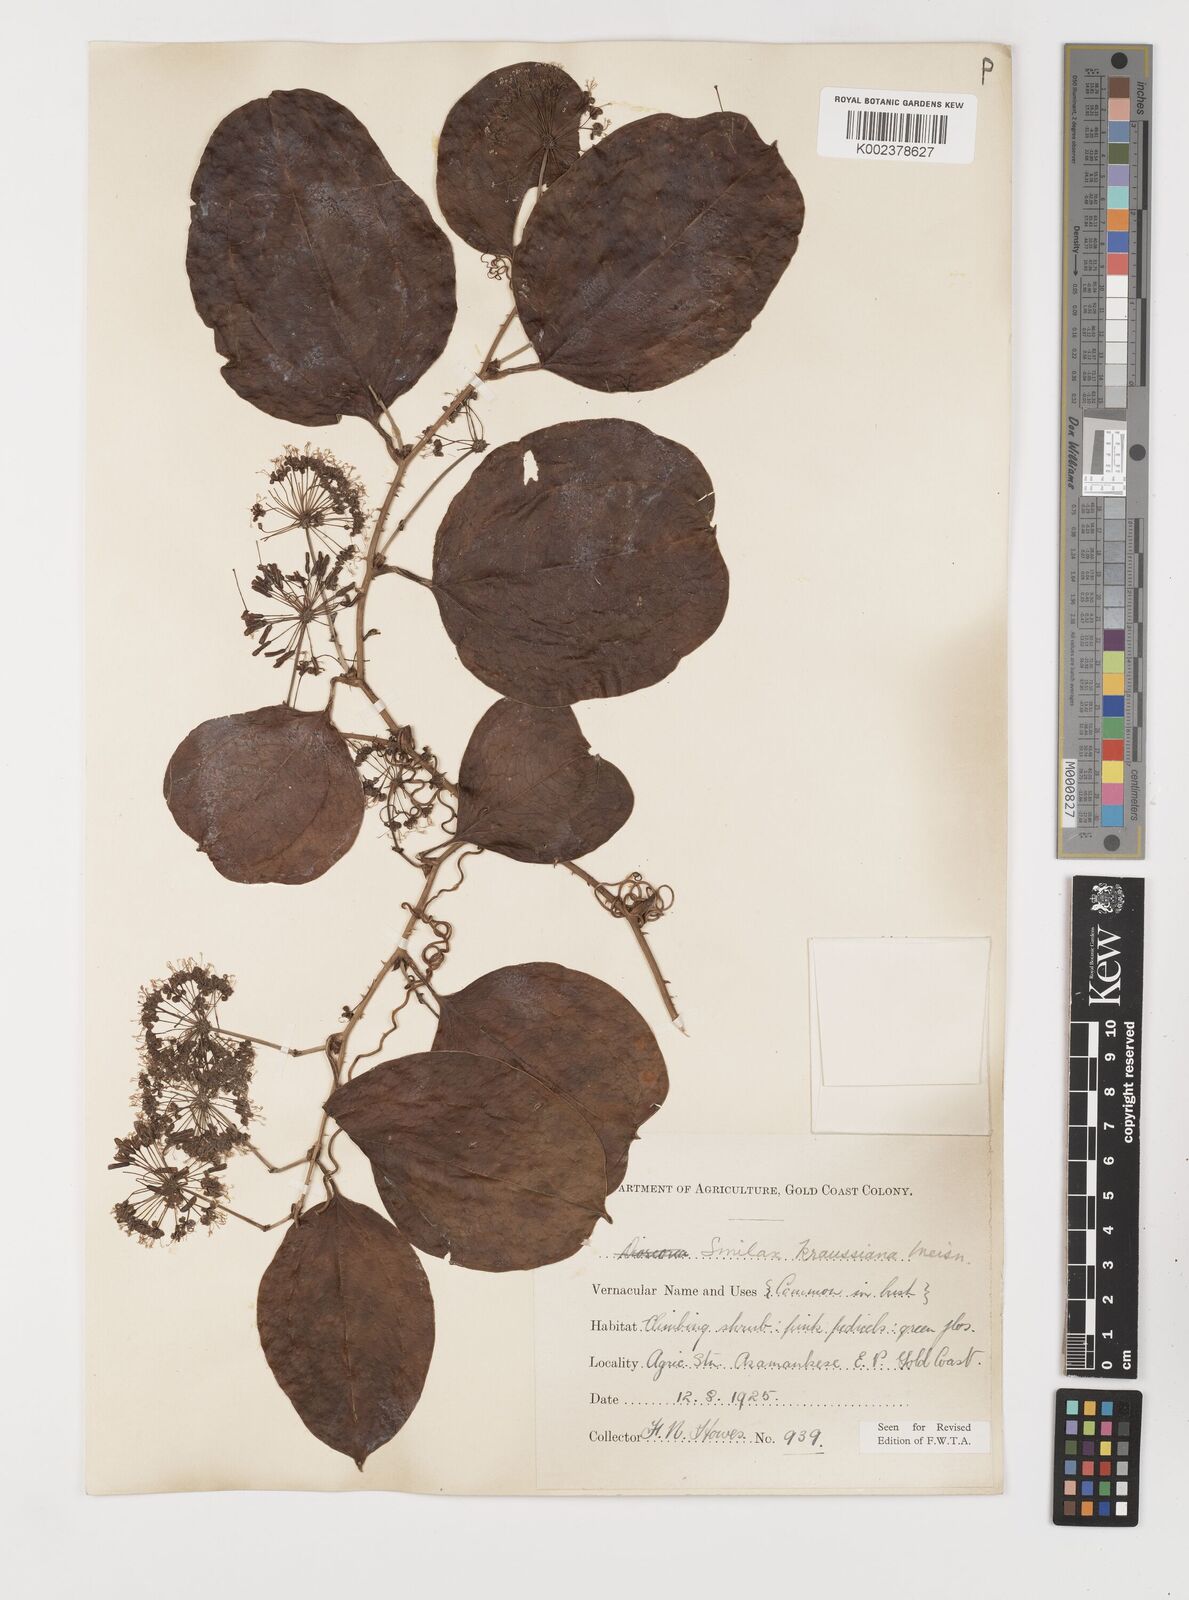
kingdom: Plantae
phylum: Tracheophyta
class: Liliopsida
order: Liliales
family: Smilacaceae
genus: Smilax
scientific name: Smilax anceps
